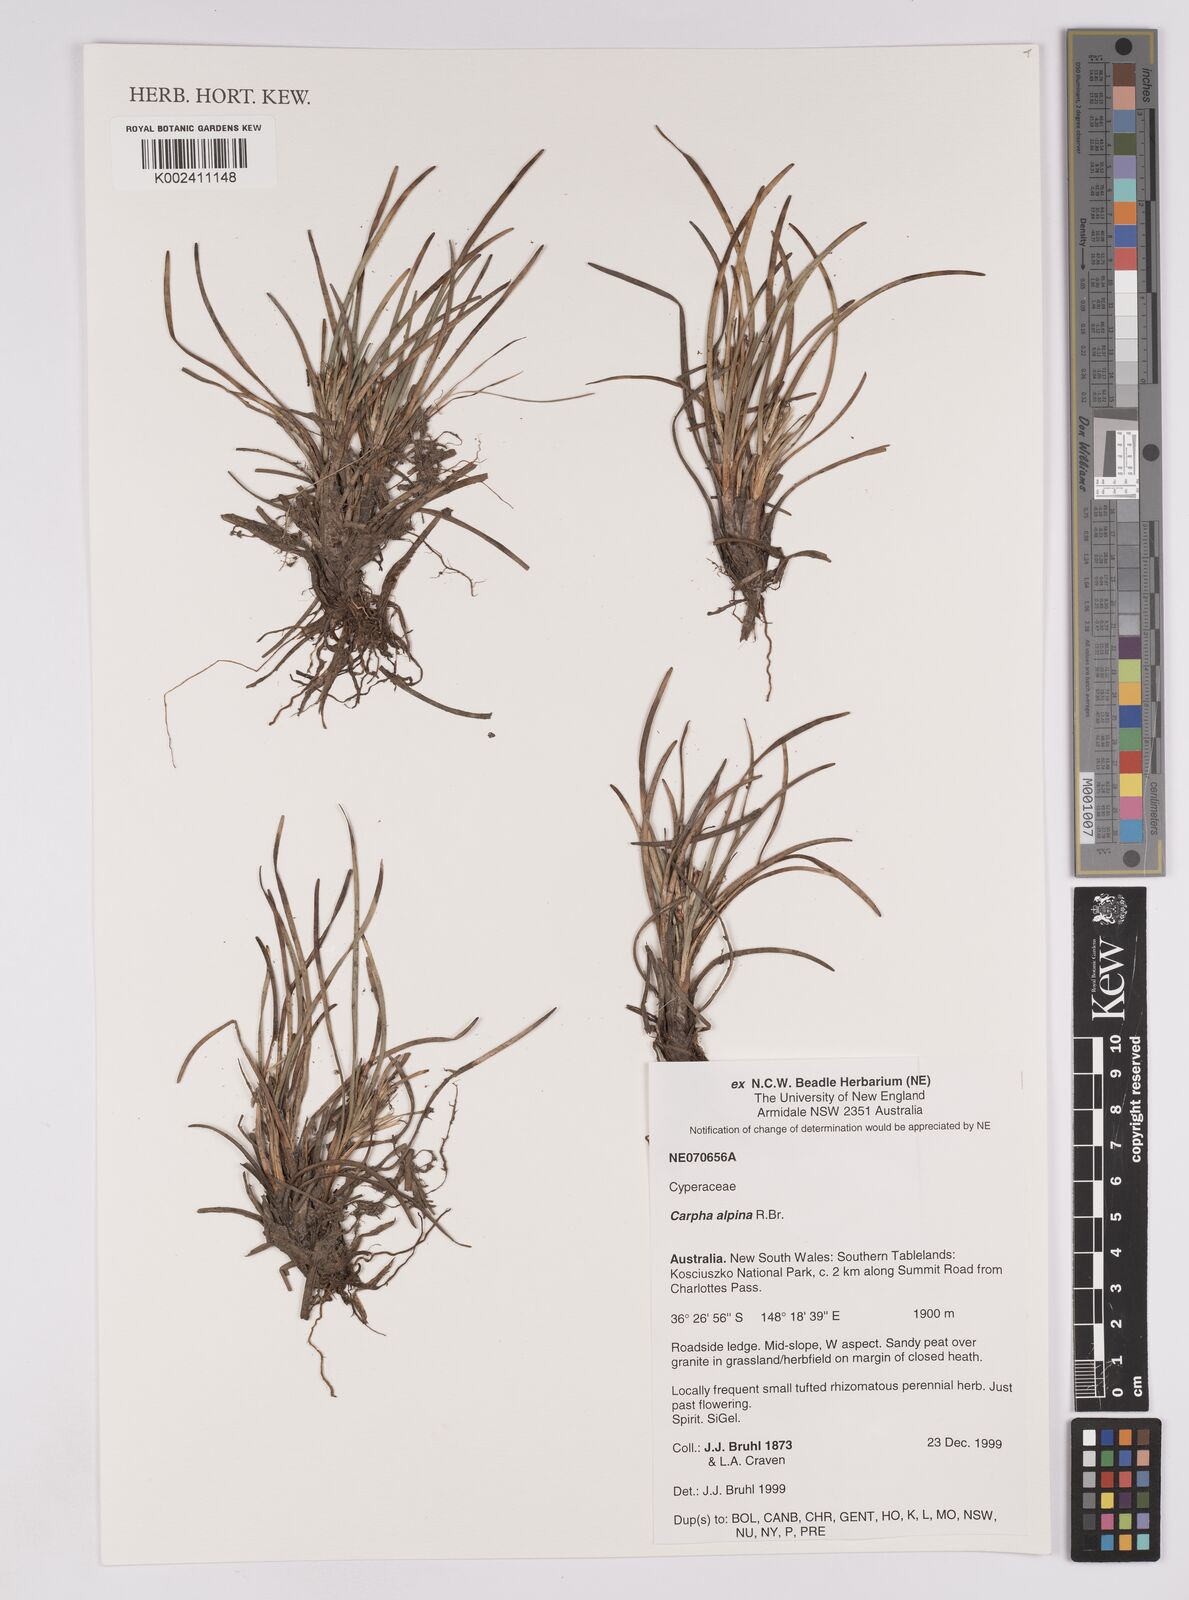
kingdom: Plantae
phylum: Tracheophyta
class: Liliopsida
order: Poales
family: Cyperaceae
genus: Carpha
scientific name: Carpha alpina
